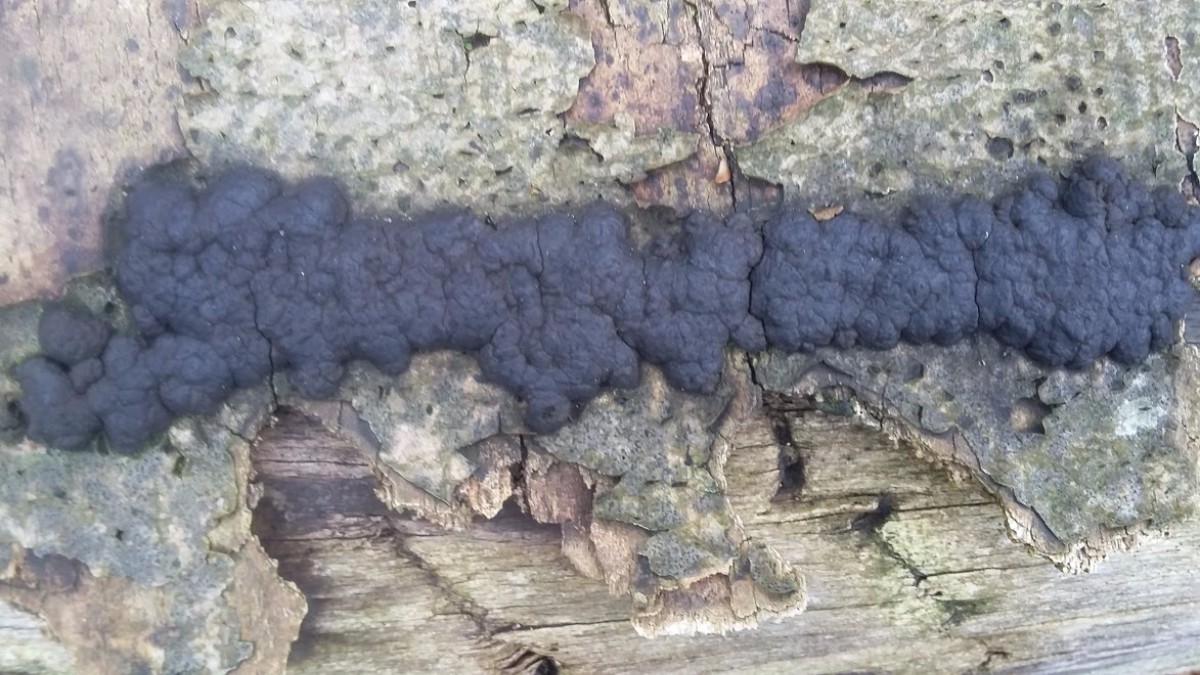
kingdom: Fungi
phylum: Ascomycota
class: Sordariomycetes
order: Xylariales
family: Hypoxylaceae
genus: Jackrogersella
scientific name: Jackrogersella cohaerens
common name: sammenflydende kulbær
